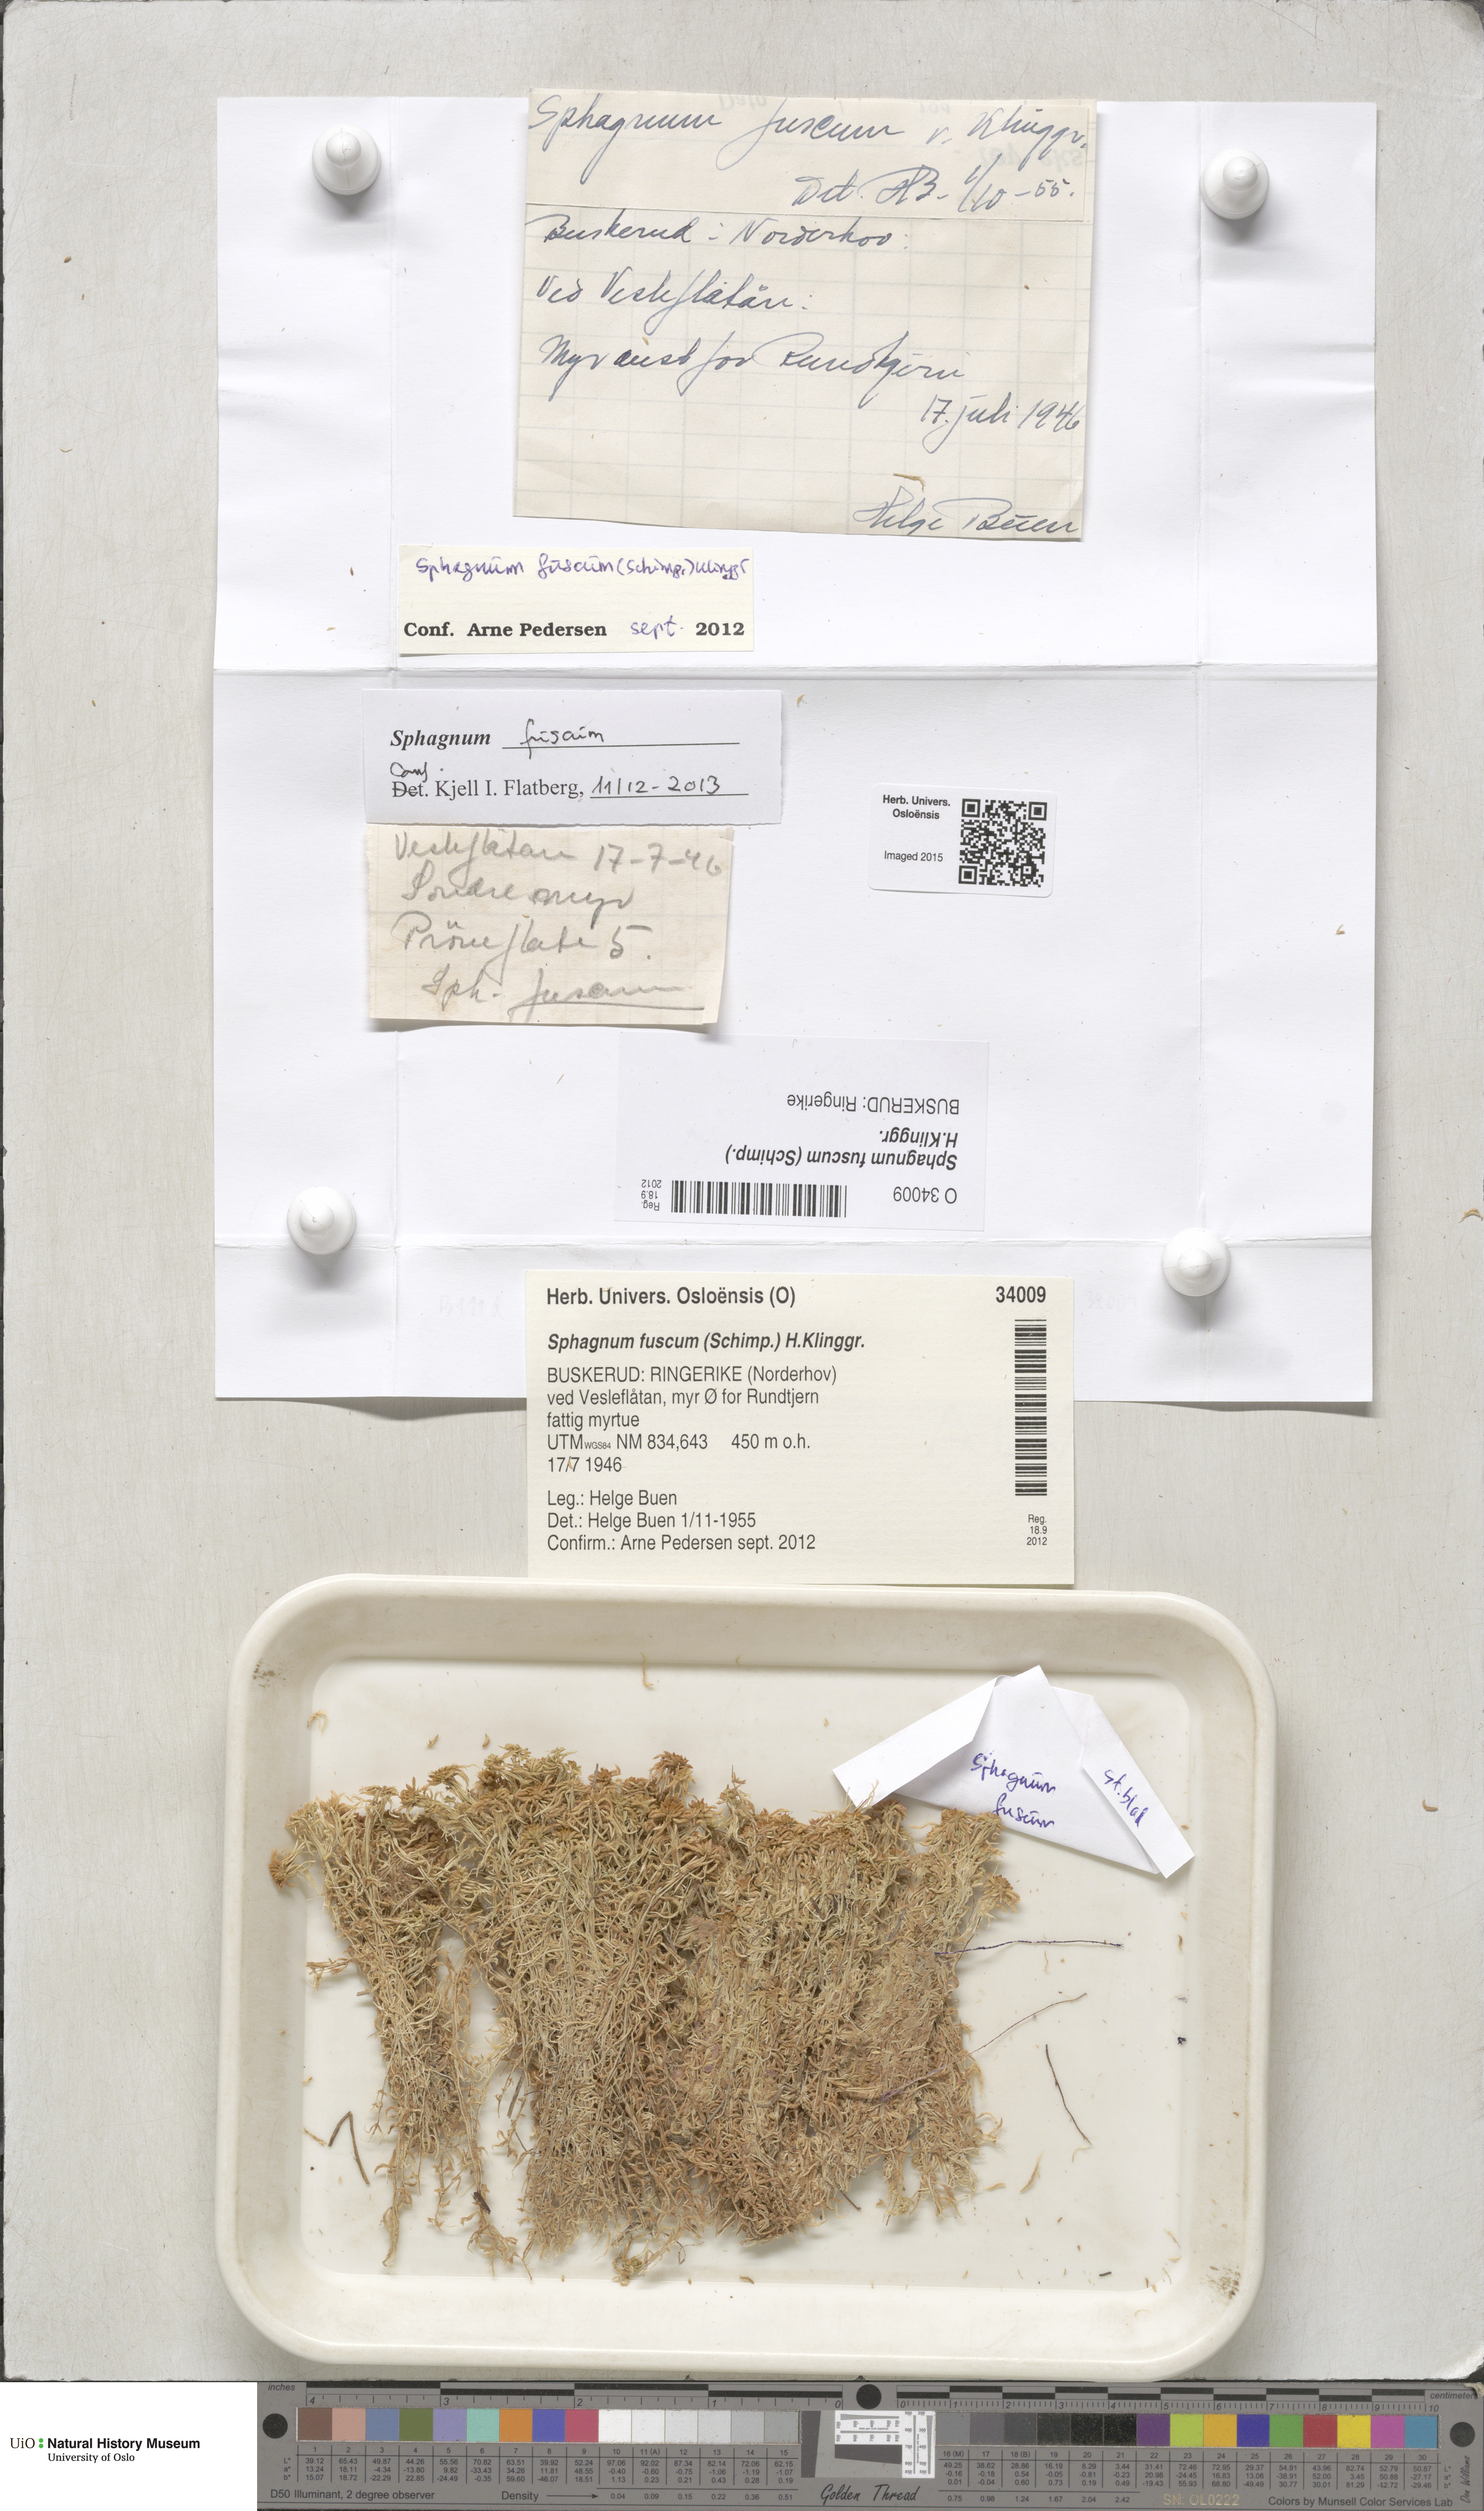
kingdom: Plantae
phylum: Bryophyta
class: Sphagnopsida
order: Sphagnales
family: Sphagnaceae
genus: Sphagnum
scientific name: Sphagnum fuscum
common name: Brown peat moss
